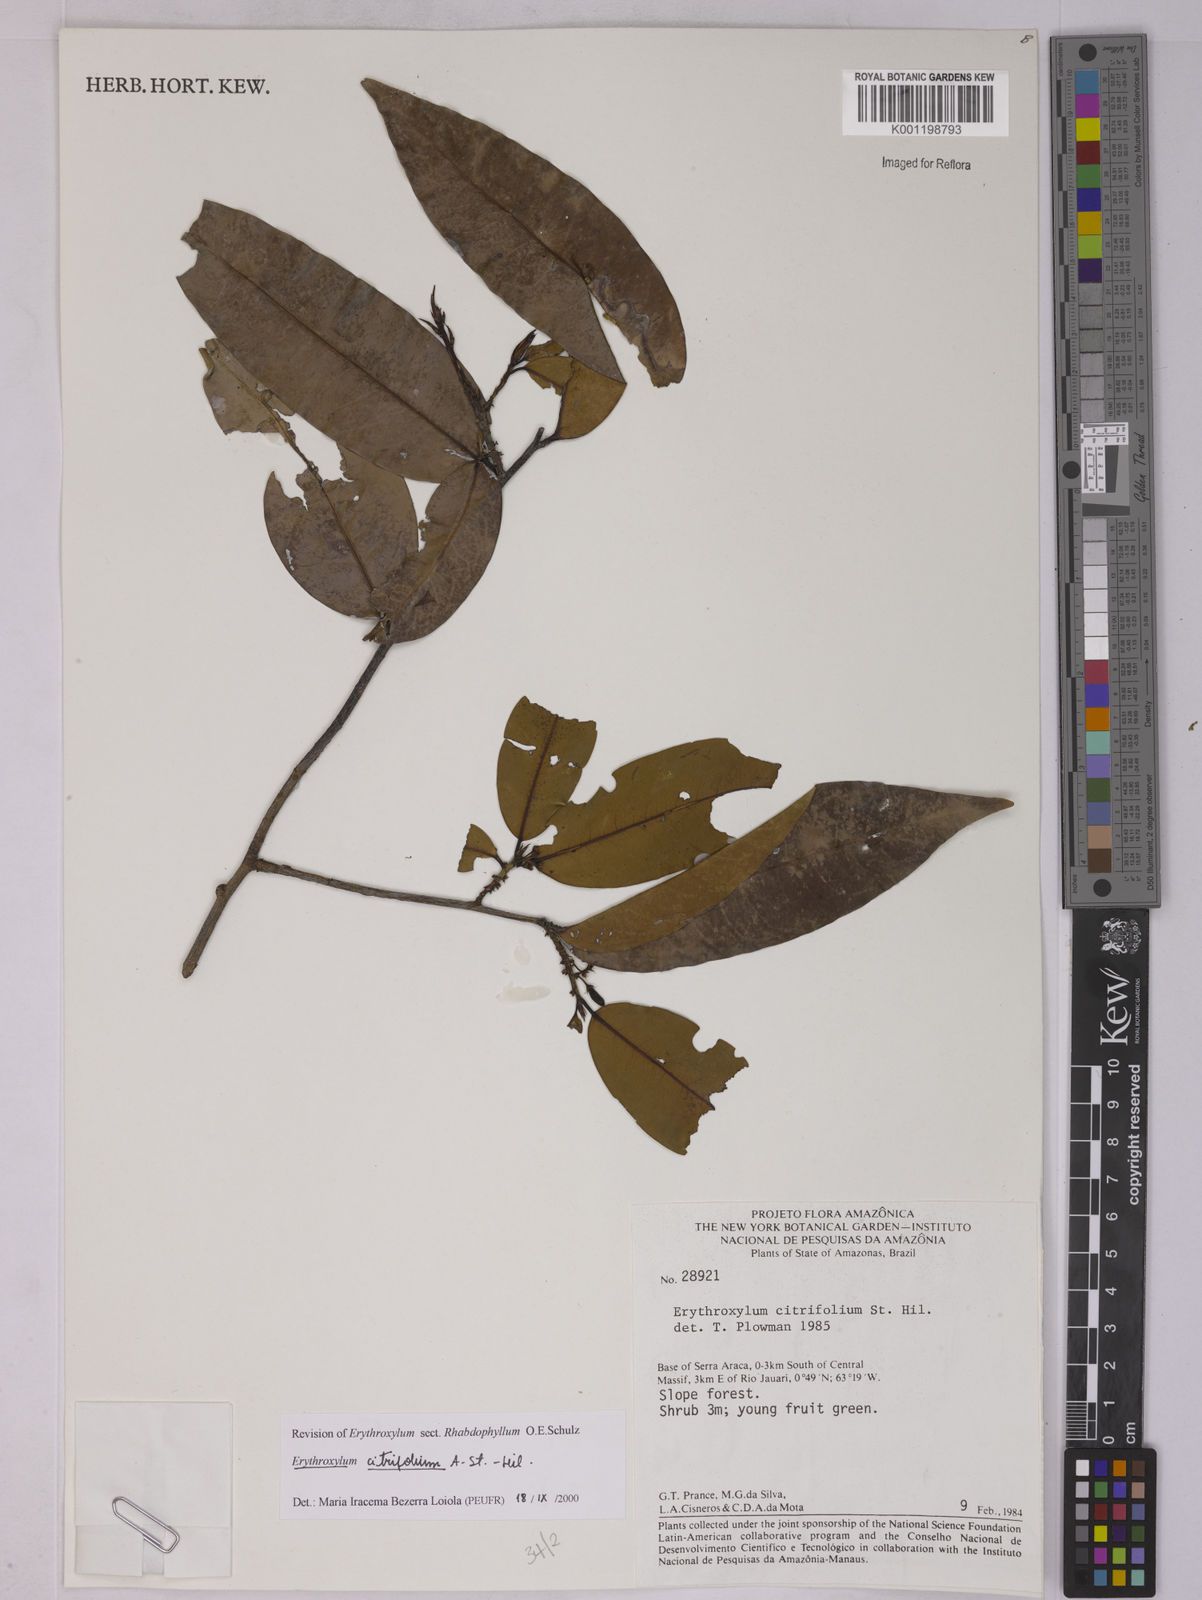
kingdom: Plantae
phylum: Tracheophyta
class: Magnoliopsida
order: Malpighiales
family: Erythroxylaceae
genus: Erythroxylum
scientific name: Erythroxylum citrifolium
